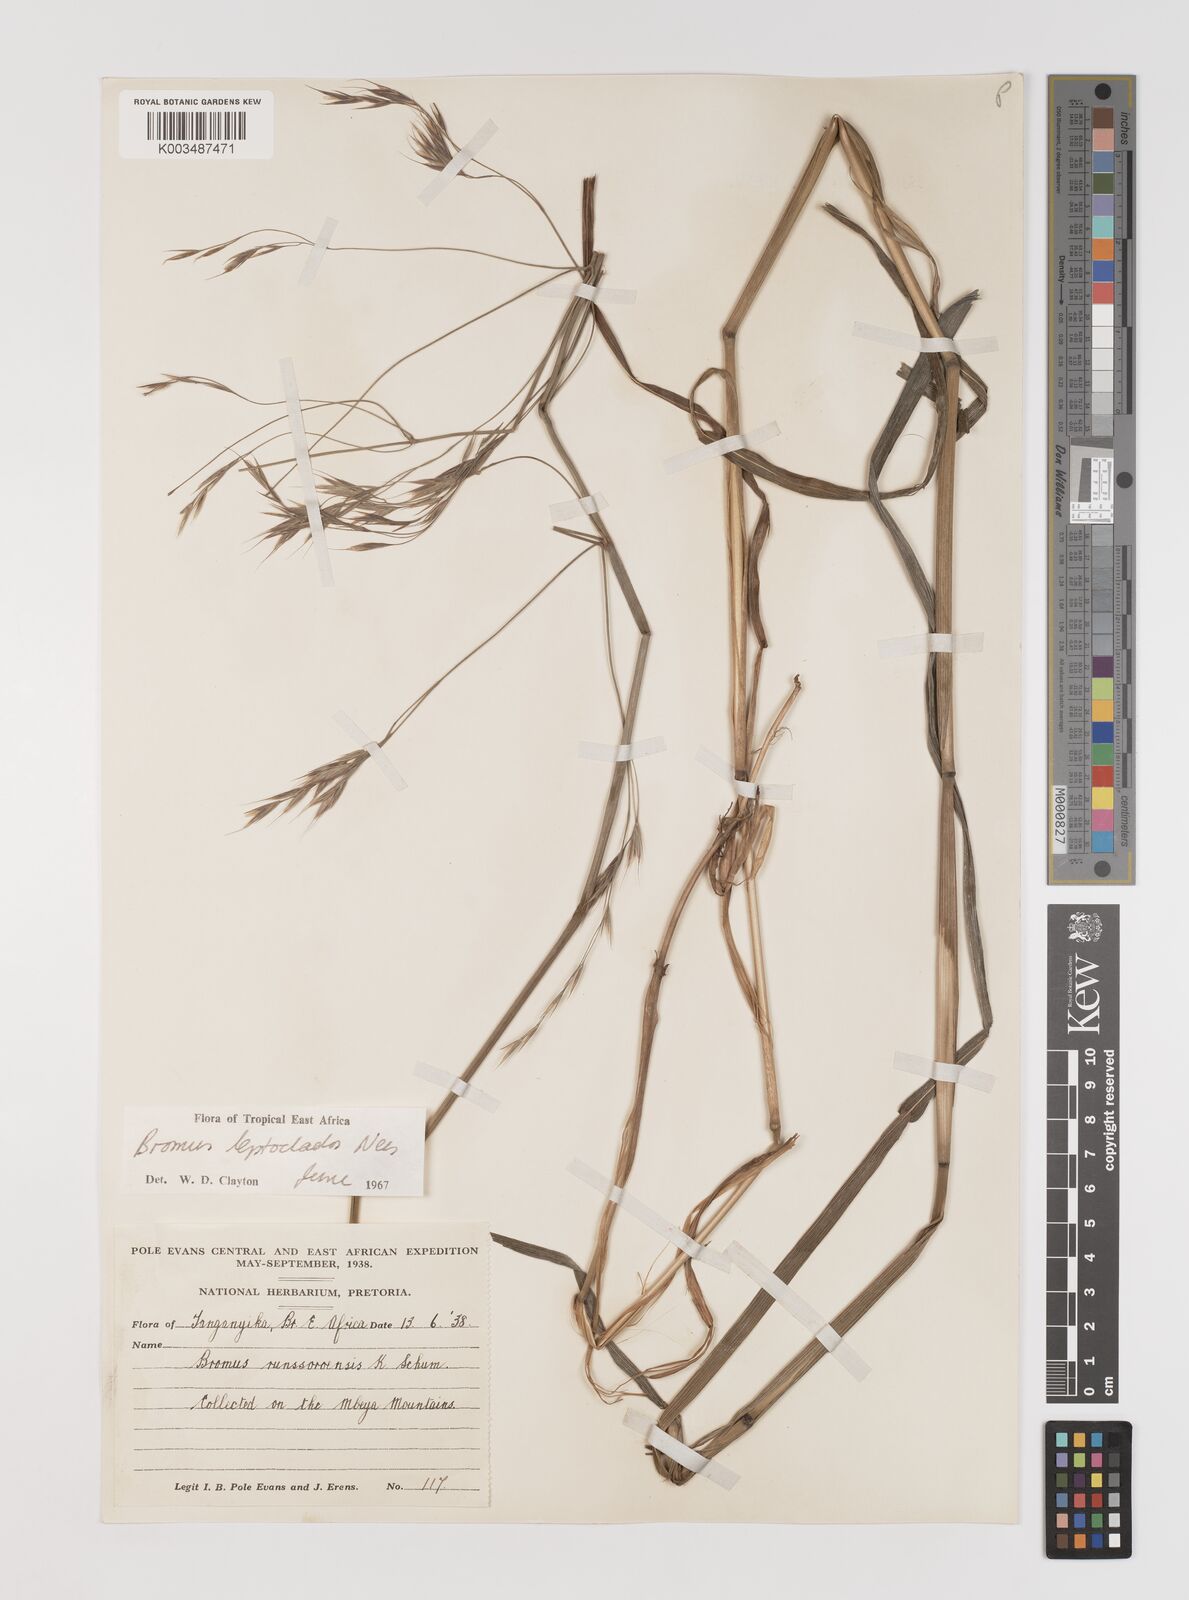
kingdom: Plantae
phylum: Tracheophyta
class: Liliopsida
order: Poales
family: Poaceae
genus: Bromus
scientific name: Bromus leptoclados
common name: Mountain bromegrass
